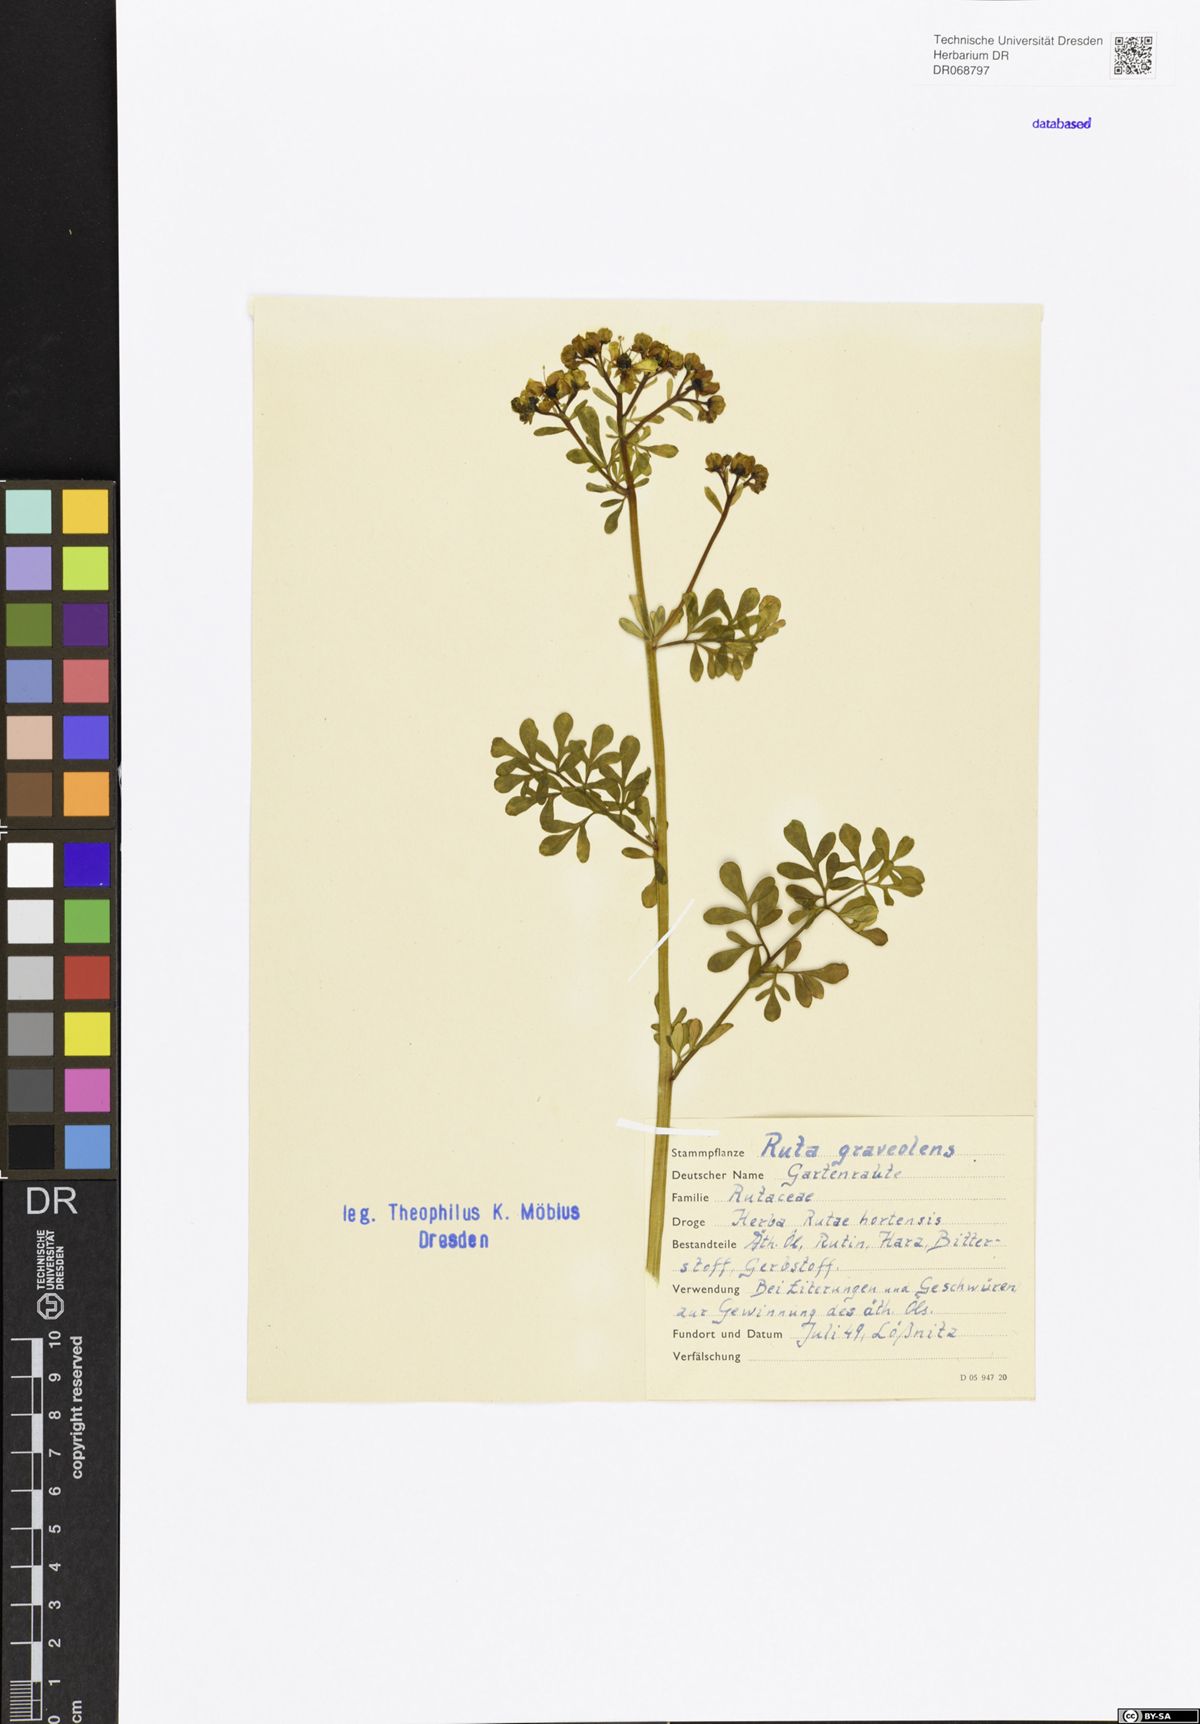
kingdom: Plantae
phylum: Tracheophyta
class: Magnoliopsida
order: Sapindales
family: Rutaceae
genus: Ruta
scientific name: Ruta graveolens
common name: Common rue
